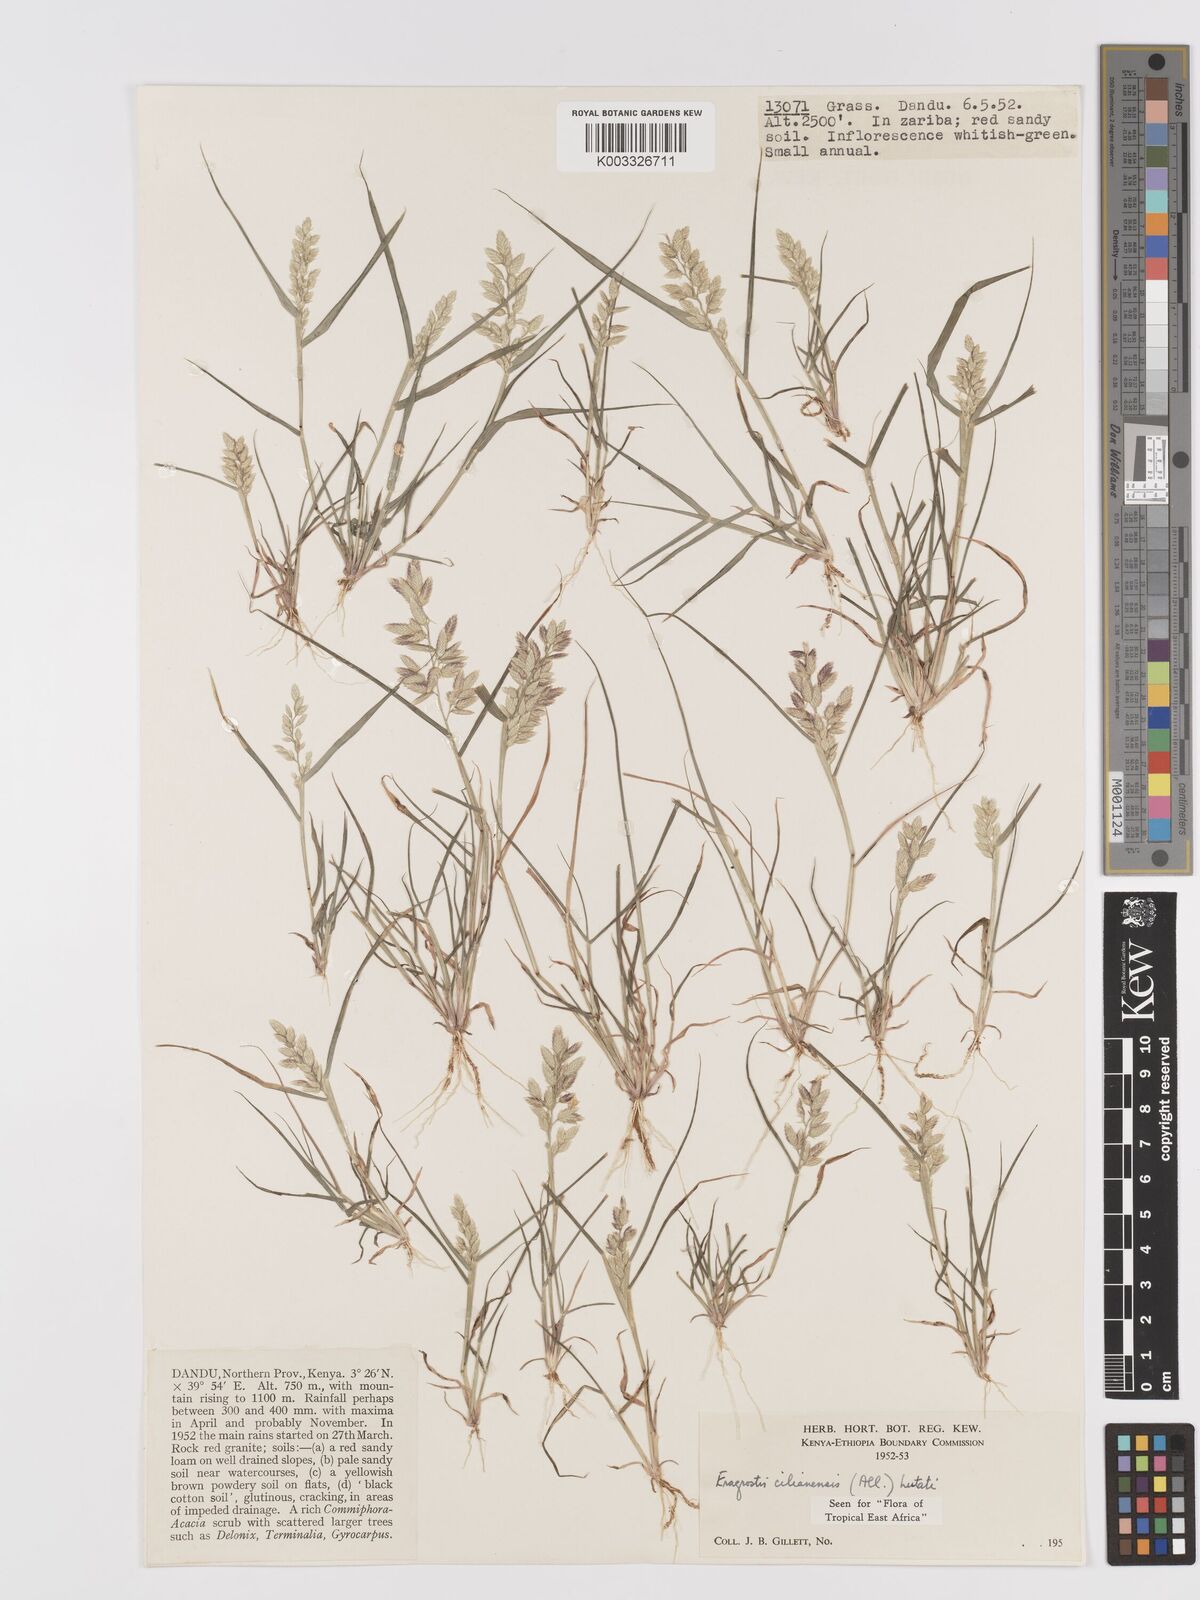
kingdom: Plantae
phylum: Tracheophyta
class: Liliopsida
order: Poales
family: Poaceae
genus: Eragrostis
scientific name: Eragrostis cilianensis
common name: Stinkgrass
